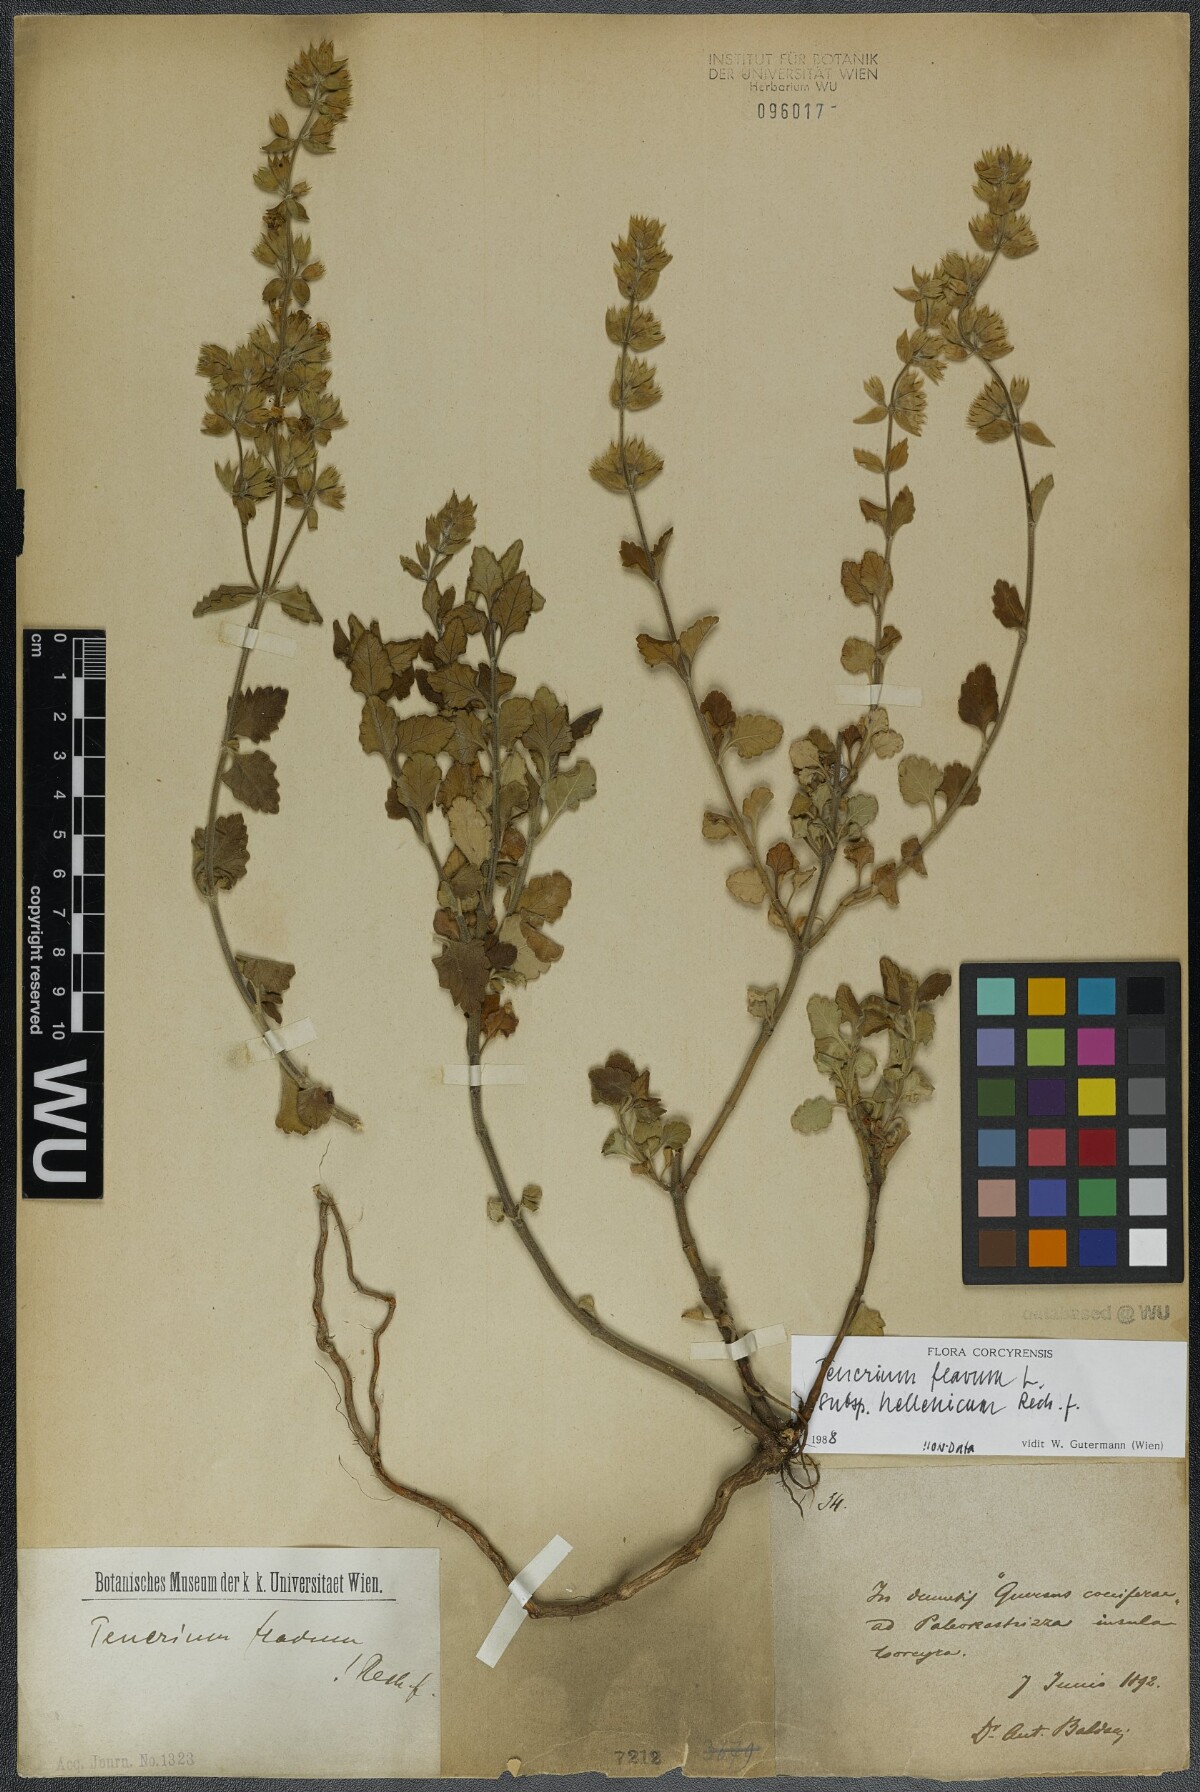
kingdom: Plantae
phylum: Tracheophyta
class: Magnoliopsida
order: Lamiales
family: Lamiaceae
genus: Teucrium
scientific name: Teucrium flavum
